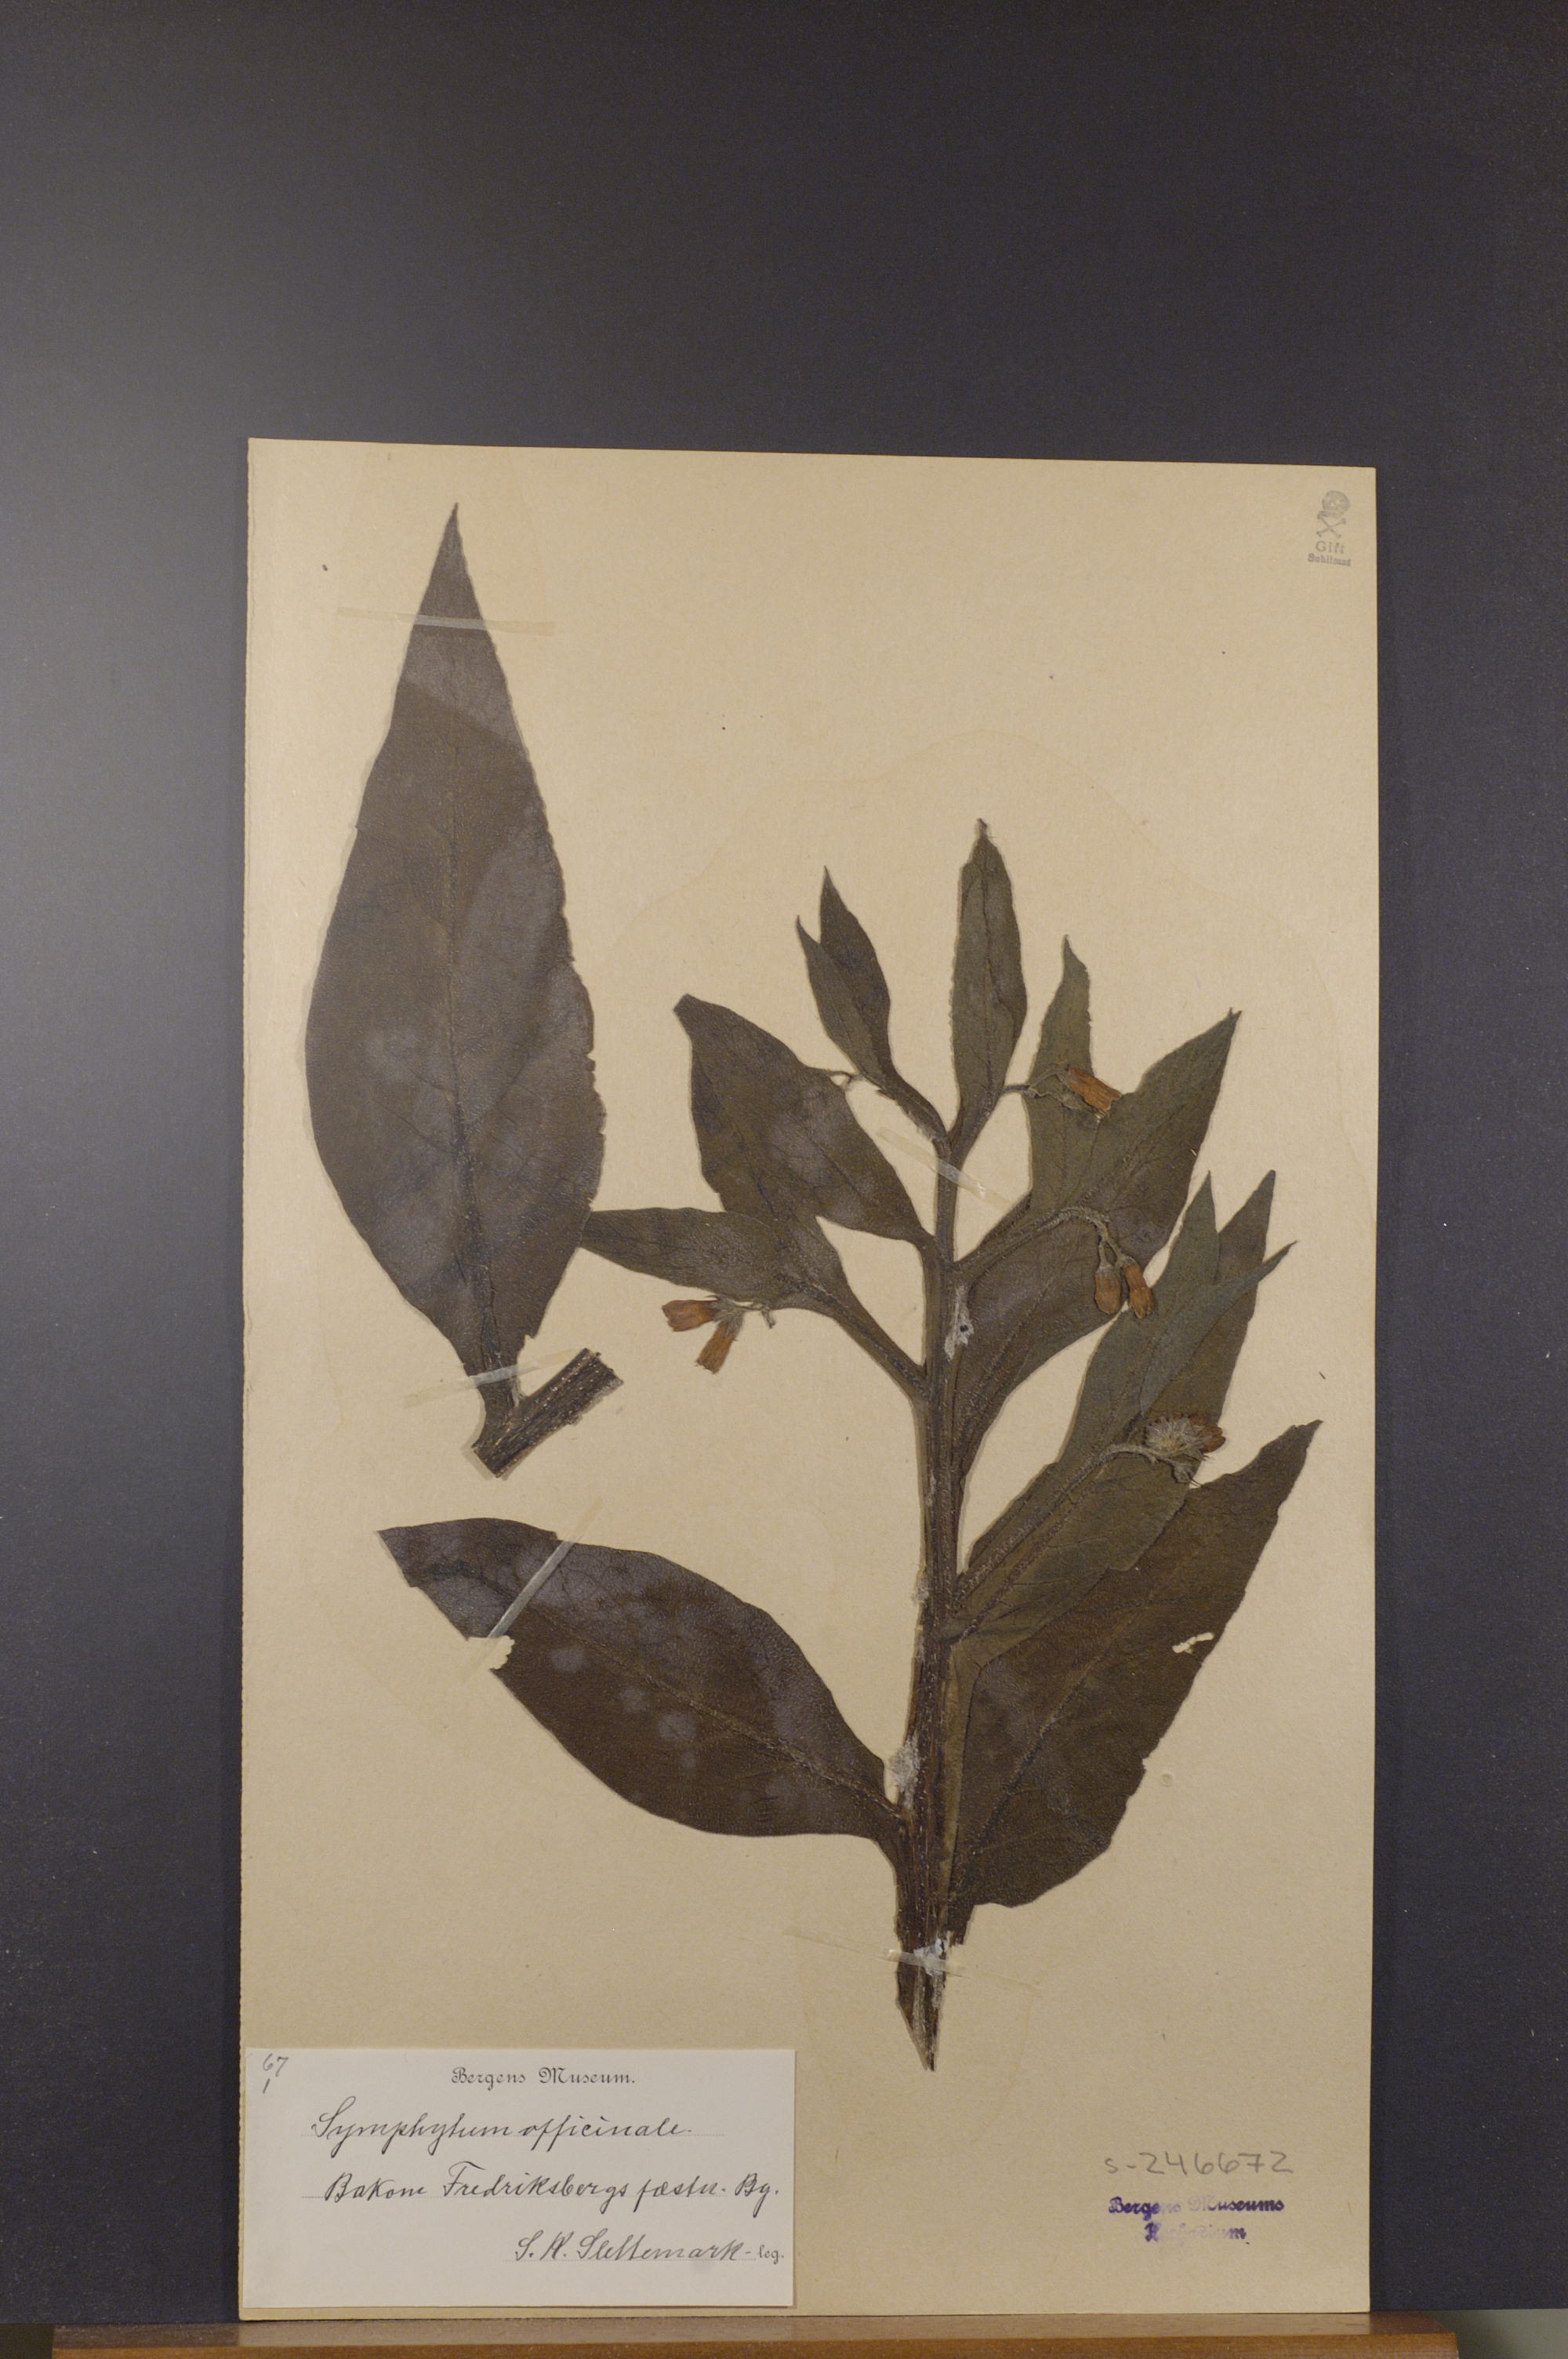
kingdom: Plantae
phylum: Tracheophyta
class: Magnoliopsida
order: Boraginales
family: Boraginaceae
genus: Symphytum
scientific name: Symphytum officinale
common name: Common comfrey
